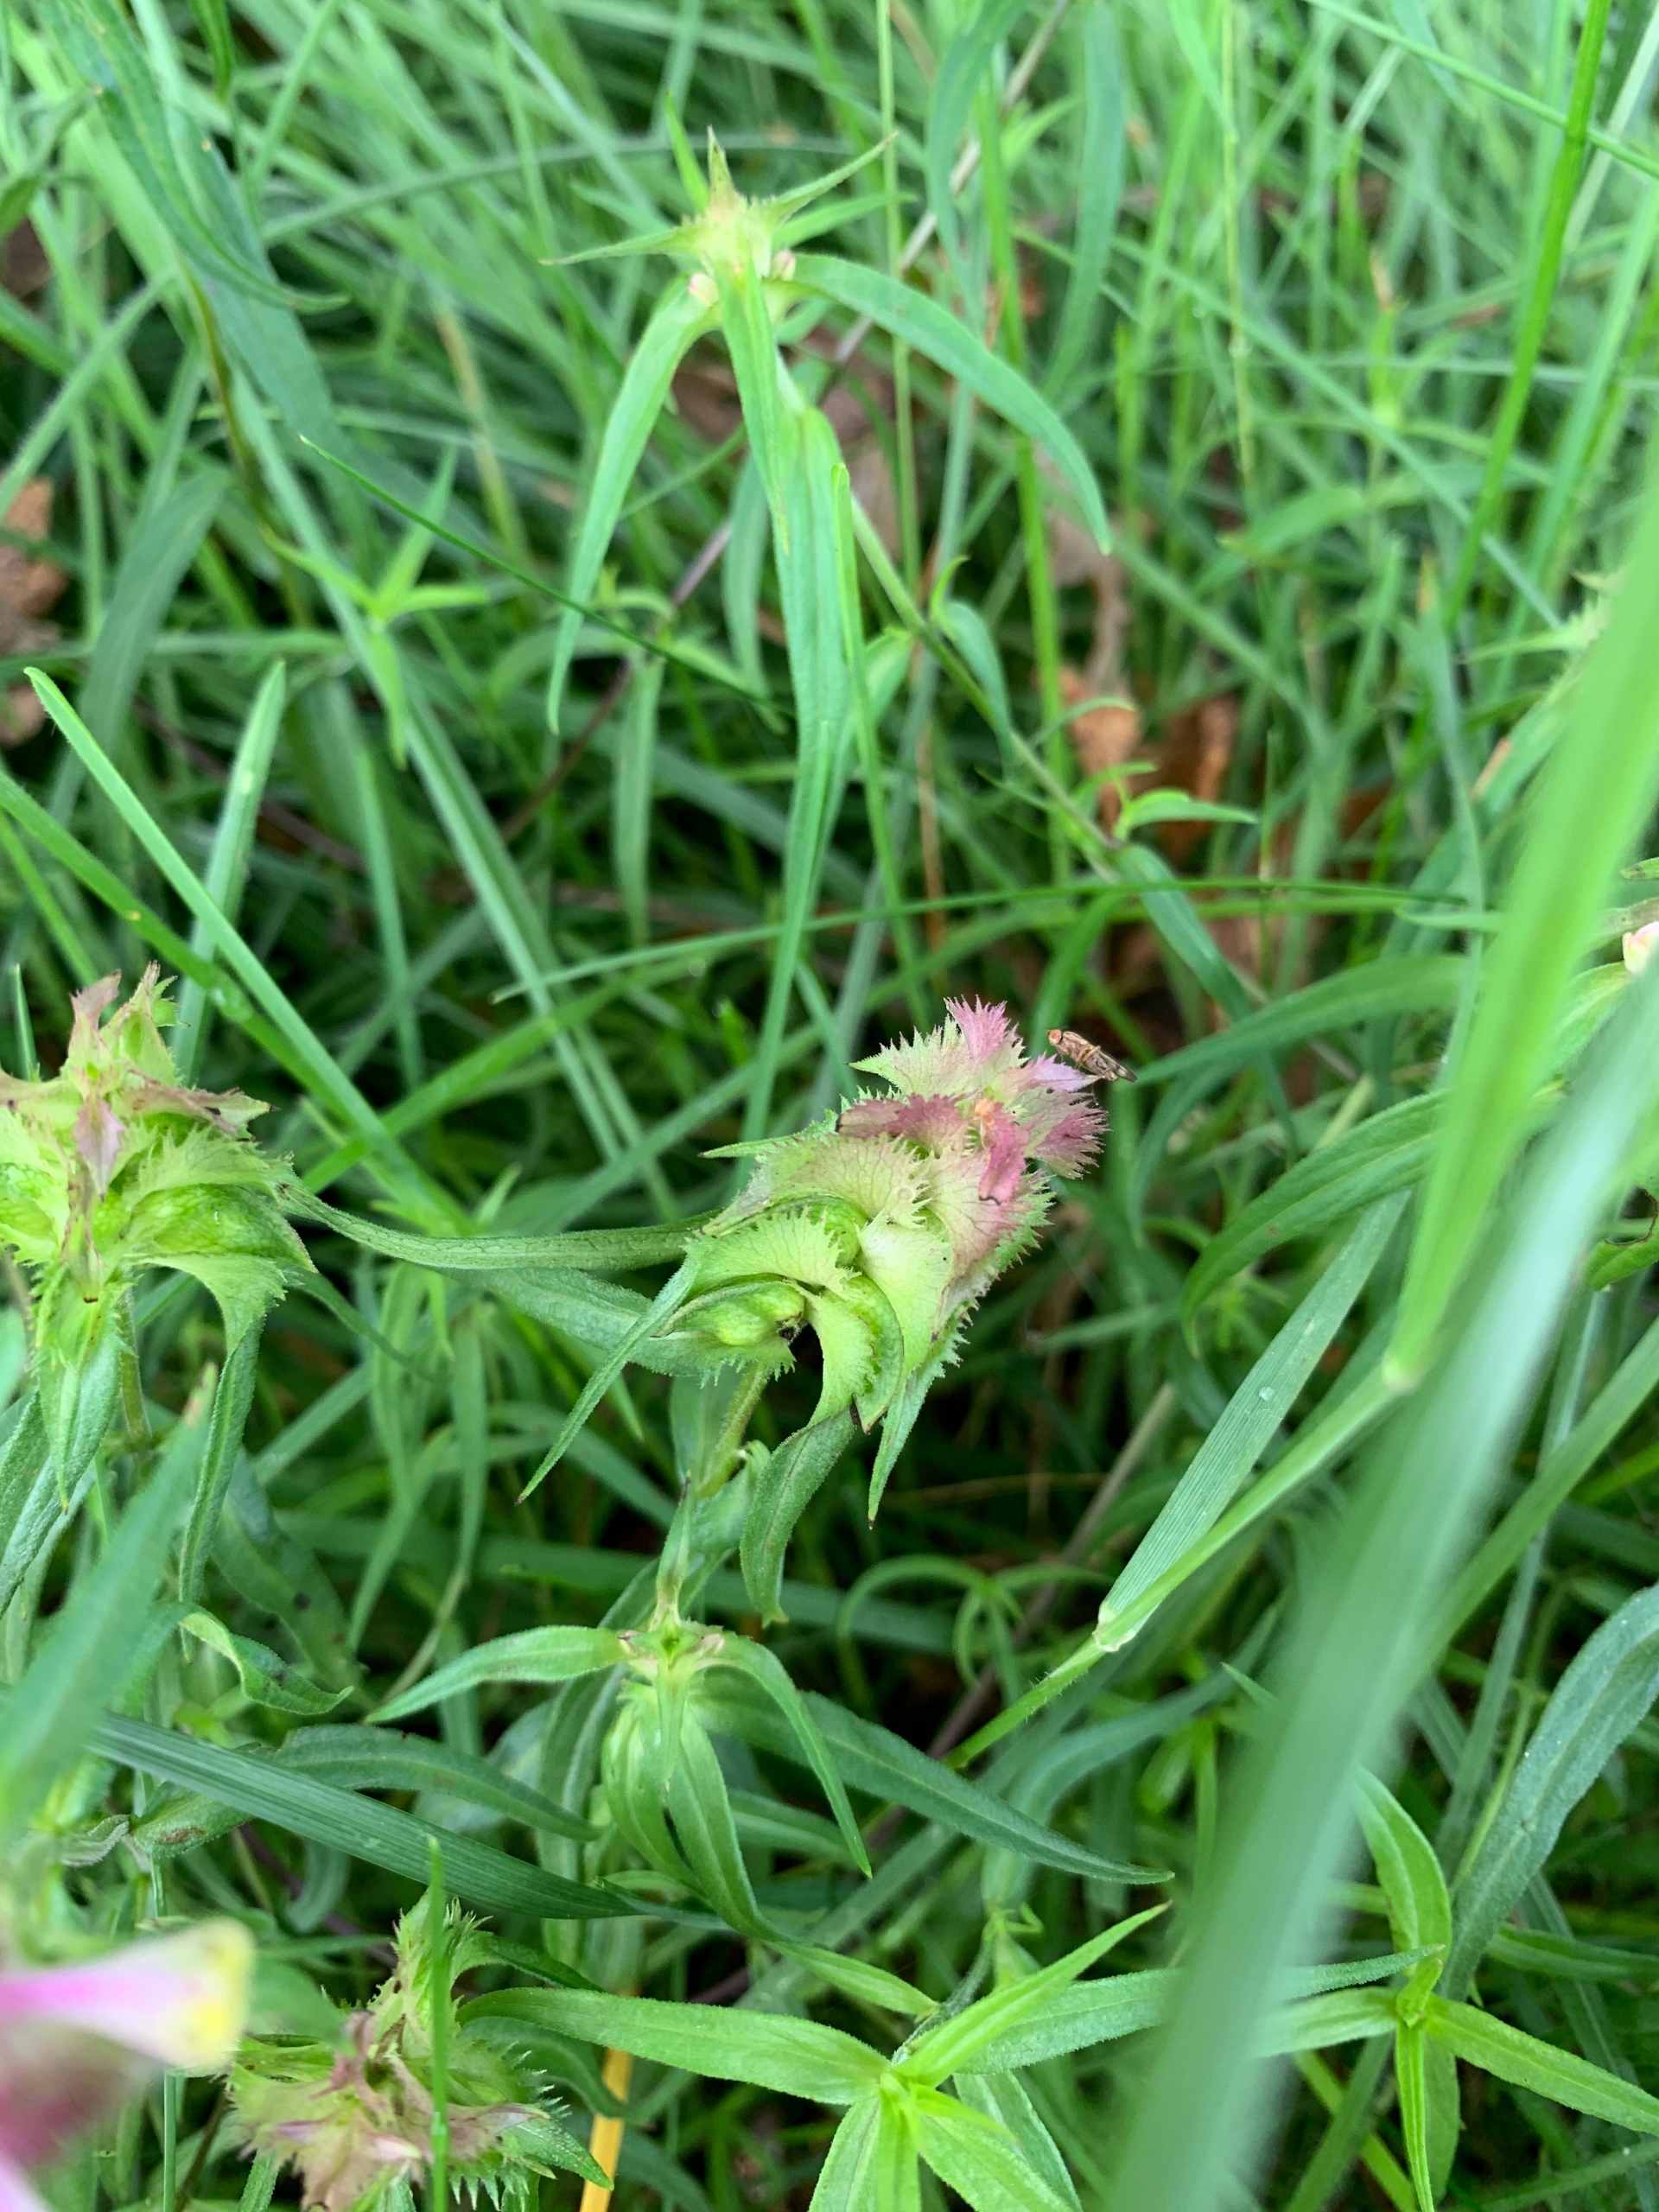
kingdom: Plantae
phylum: Tracheophyta
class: Magnoliopsida
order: Lamiales
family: Orobanchaceae
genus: Melampyrum
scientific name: Melampyrum cristatum
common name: Kantet kohvede
